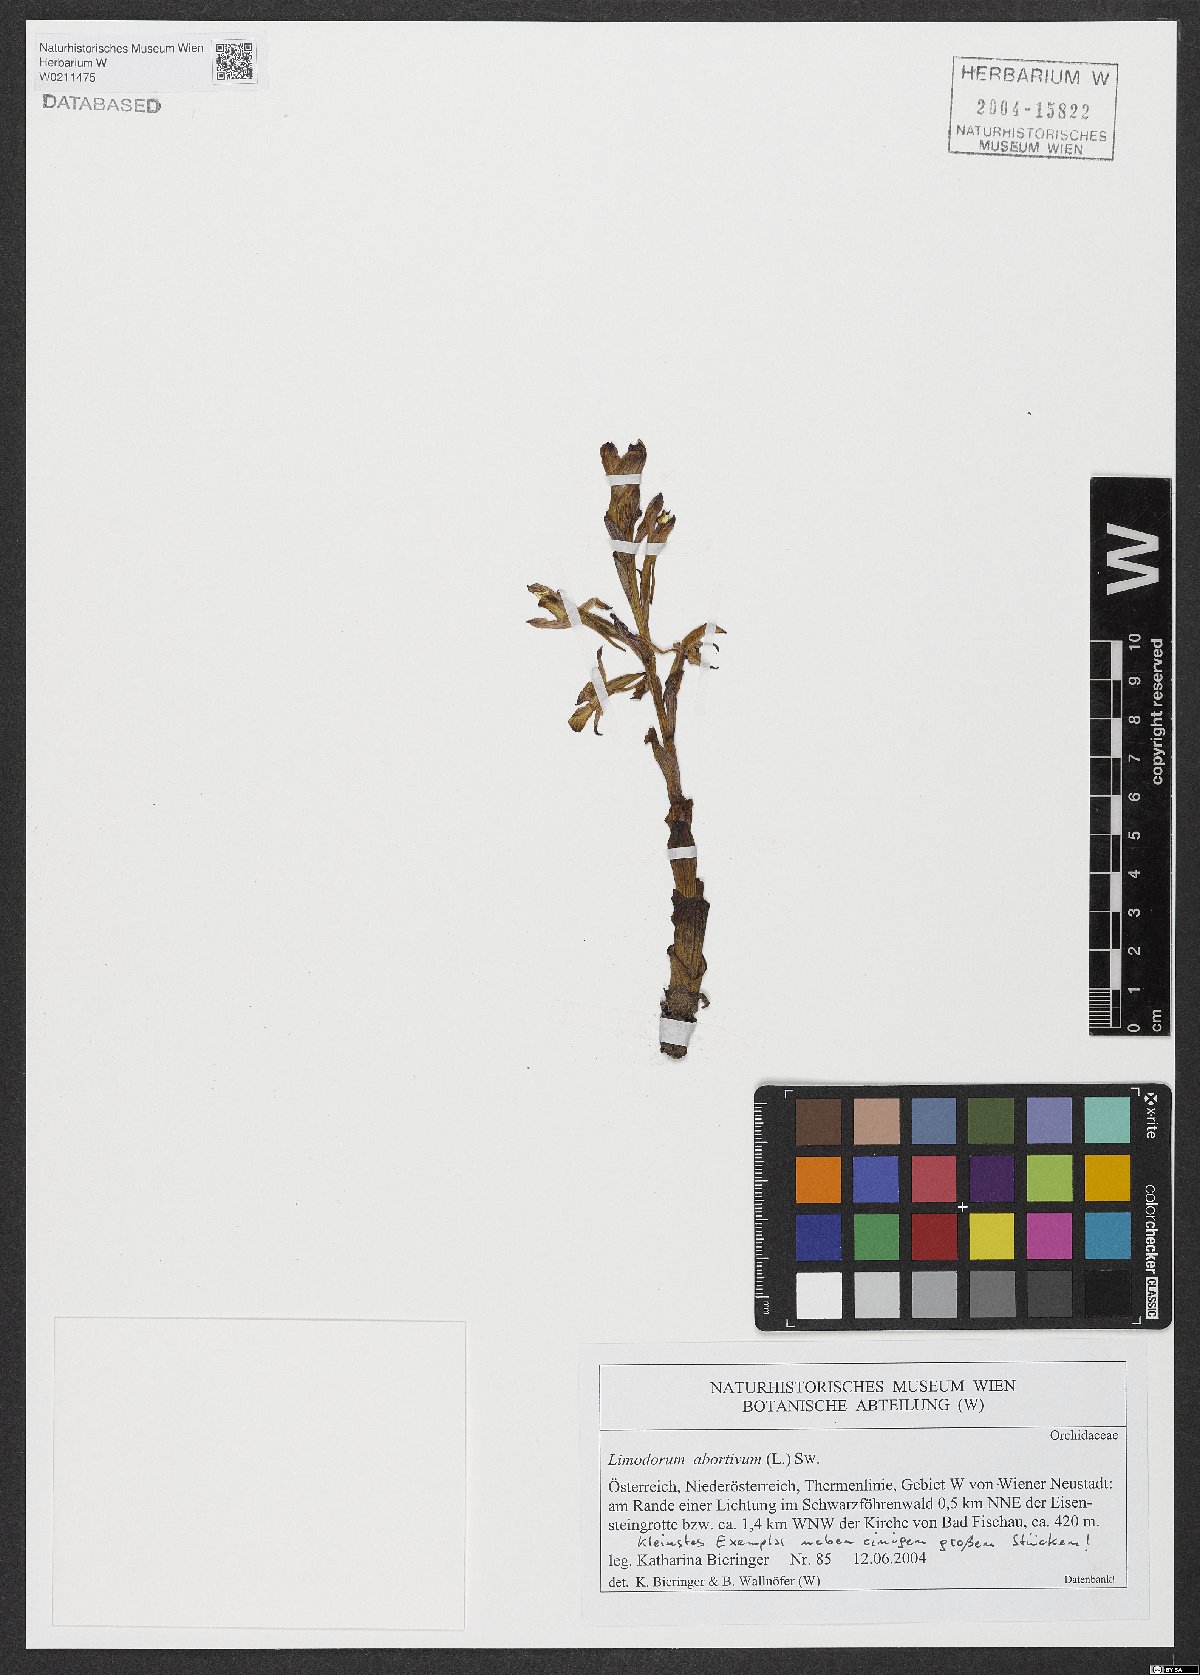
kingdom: Plantae
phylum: Tracheophyta
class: Liliopsida
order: Asparagales
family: Orchidaceae
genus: Limodorum
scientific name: Limodorum abortivum
